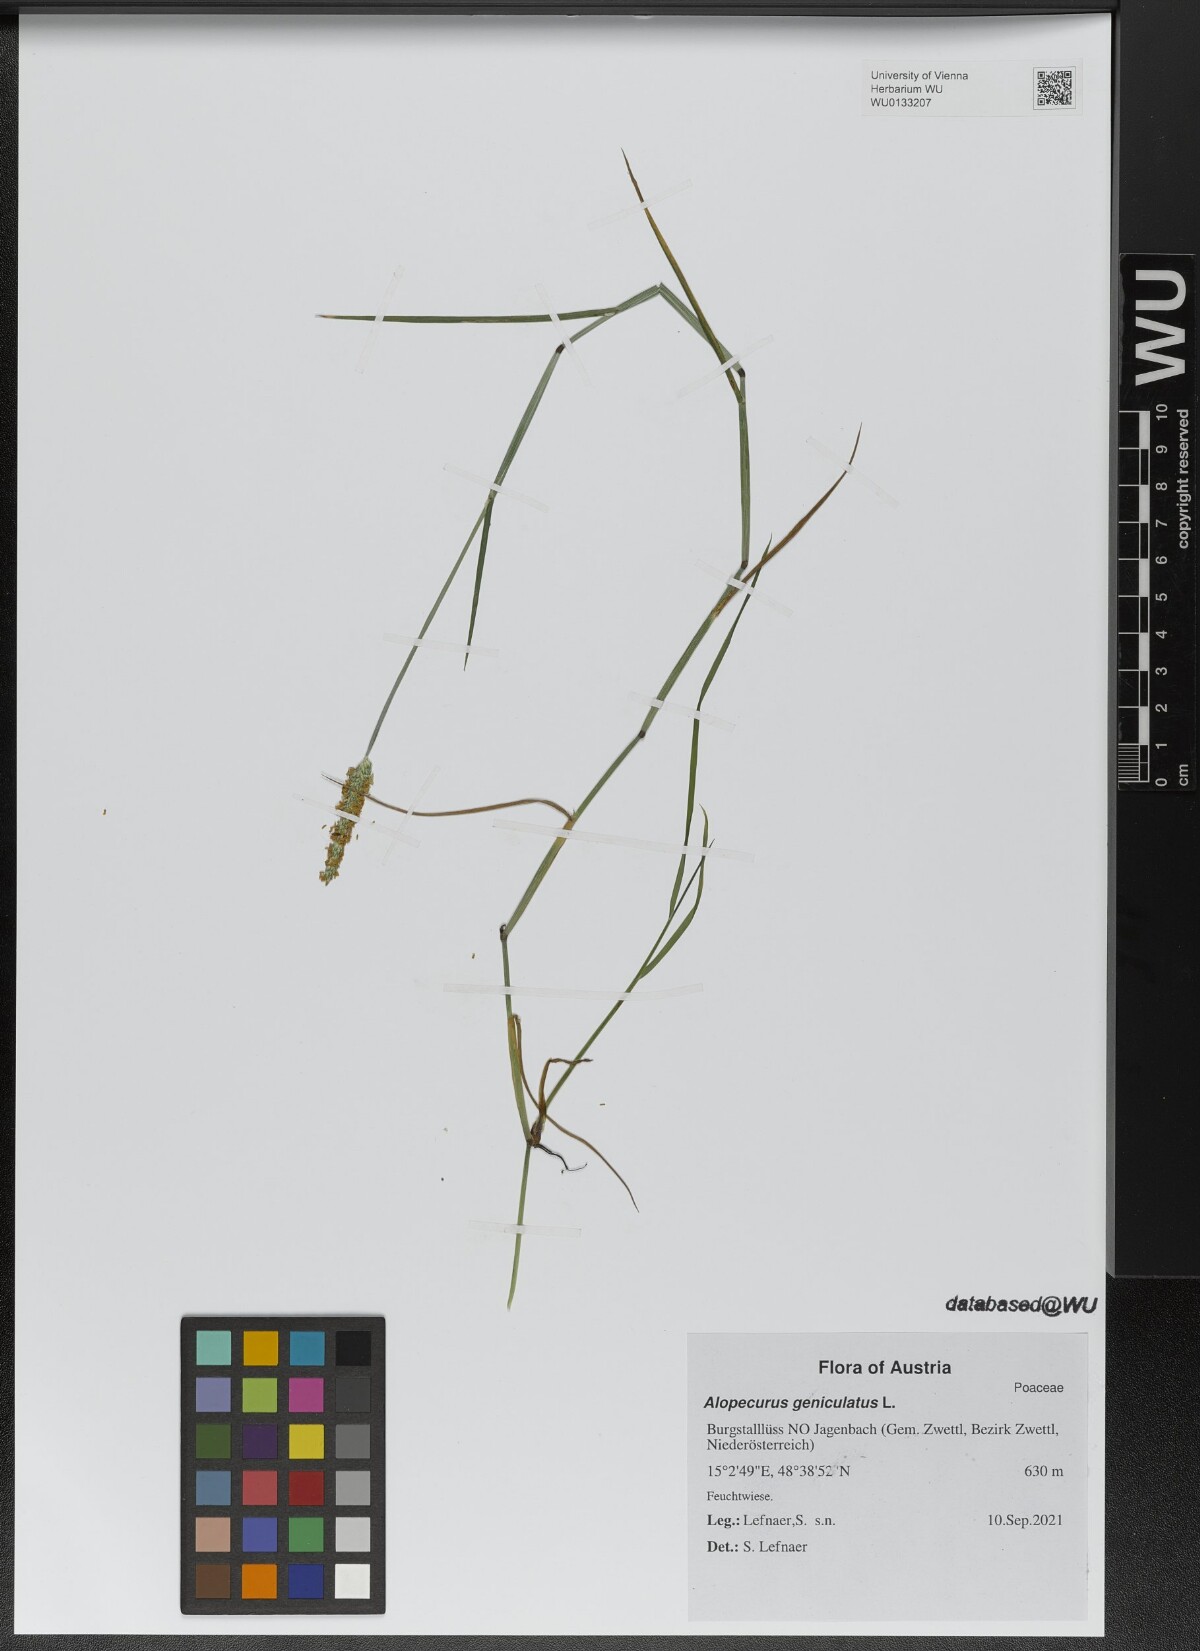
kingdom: Plantae
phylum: Tracheophyta
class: Liliopsida
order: Poales
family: Poaceae
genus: Alopecurus
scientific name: Alopecurus geniculatus
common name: Water foxtail
